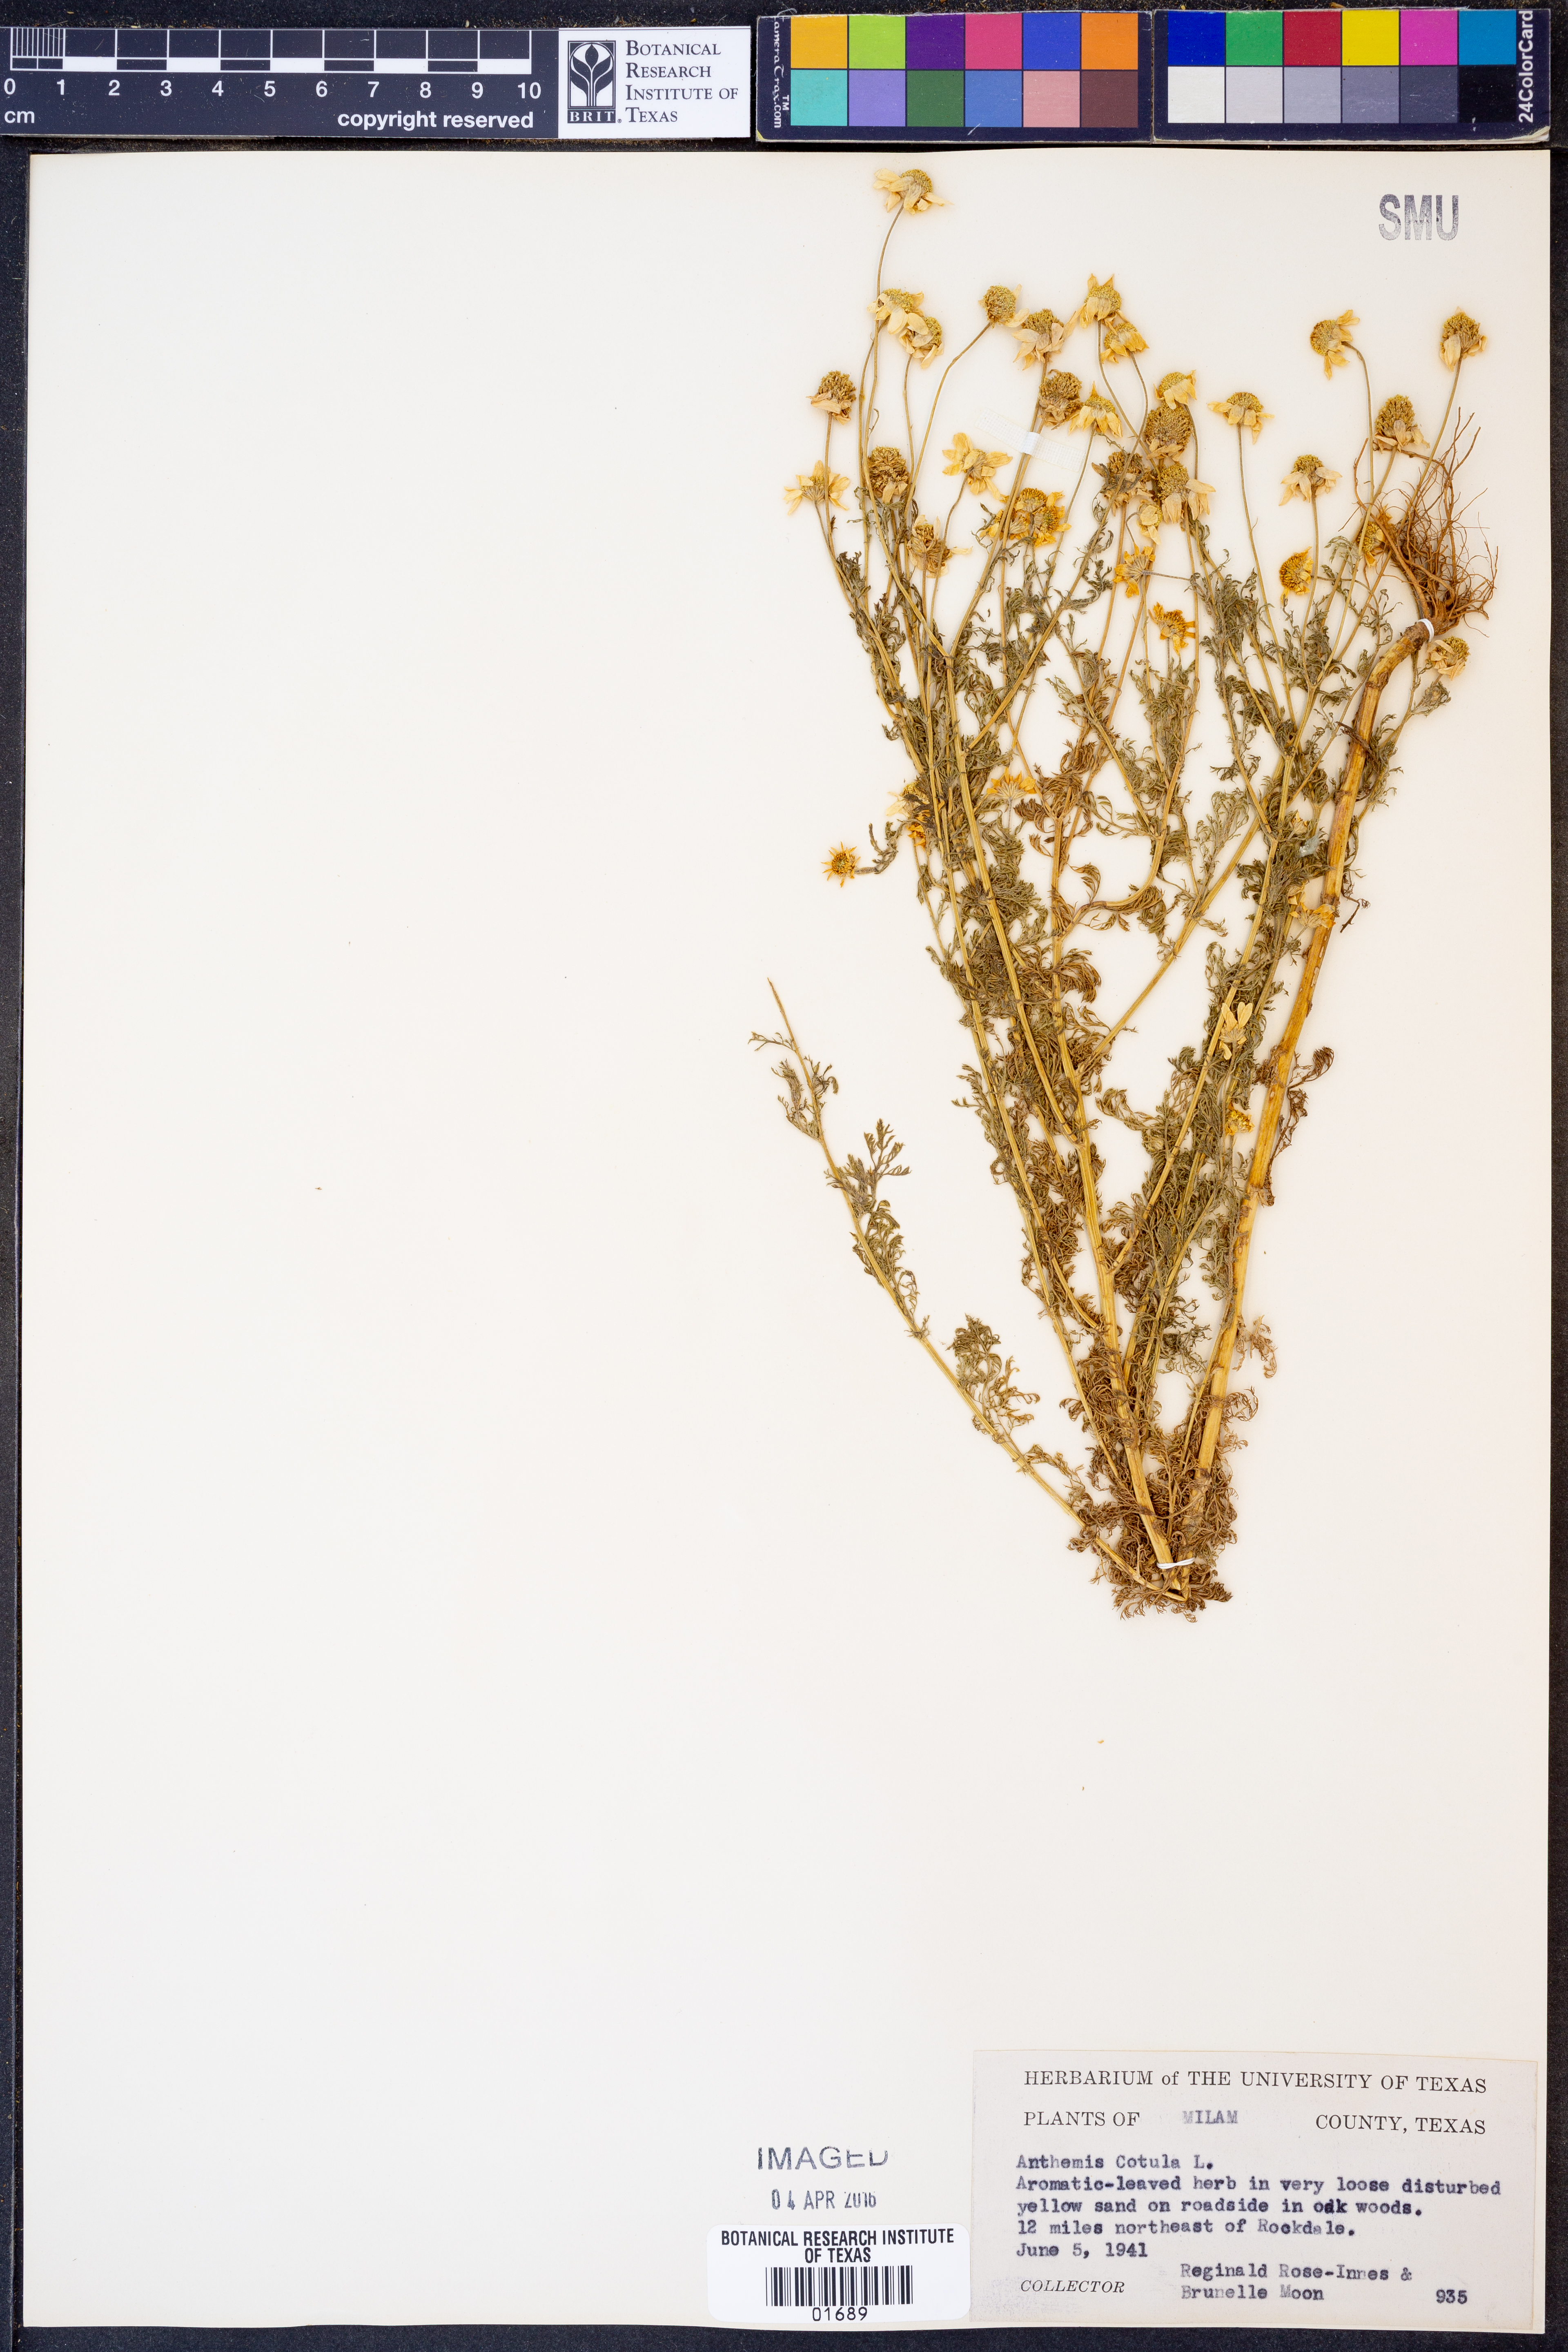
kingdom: Plantae
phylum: Tracheophyta
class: Magnoliopsida
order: Asterales
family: Asteraceae
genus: Anthemis
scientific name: Anthemis cotula
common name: Stinking chamomile
